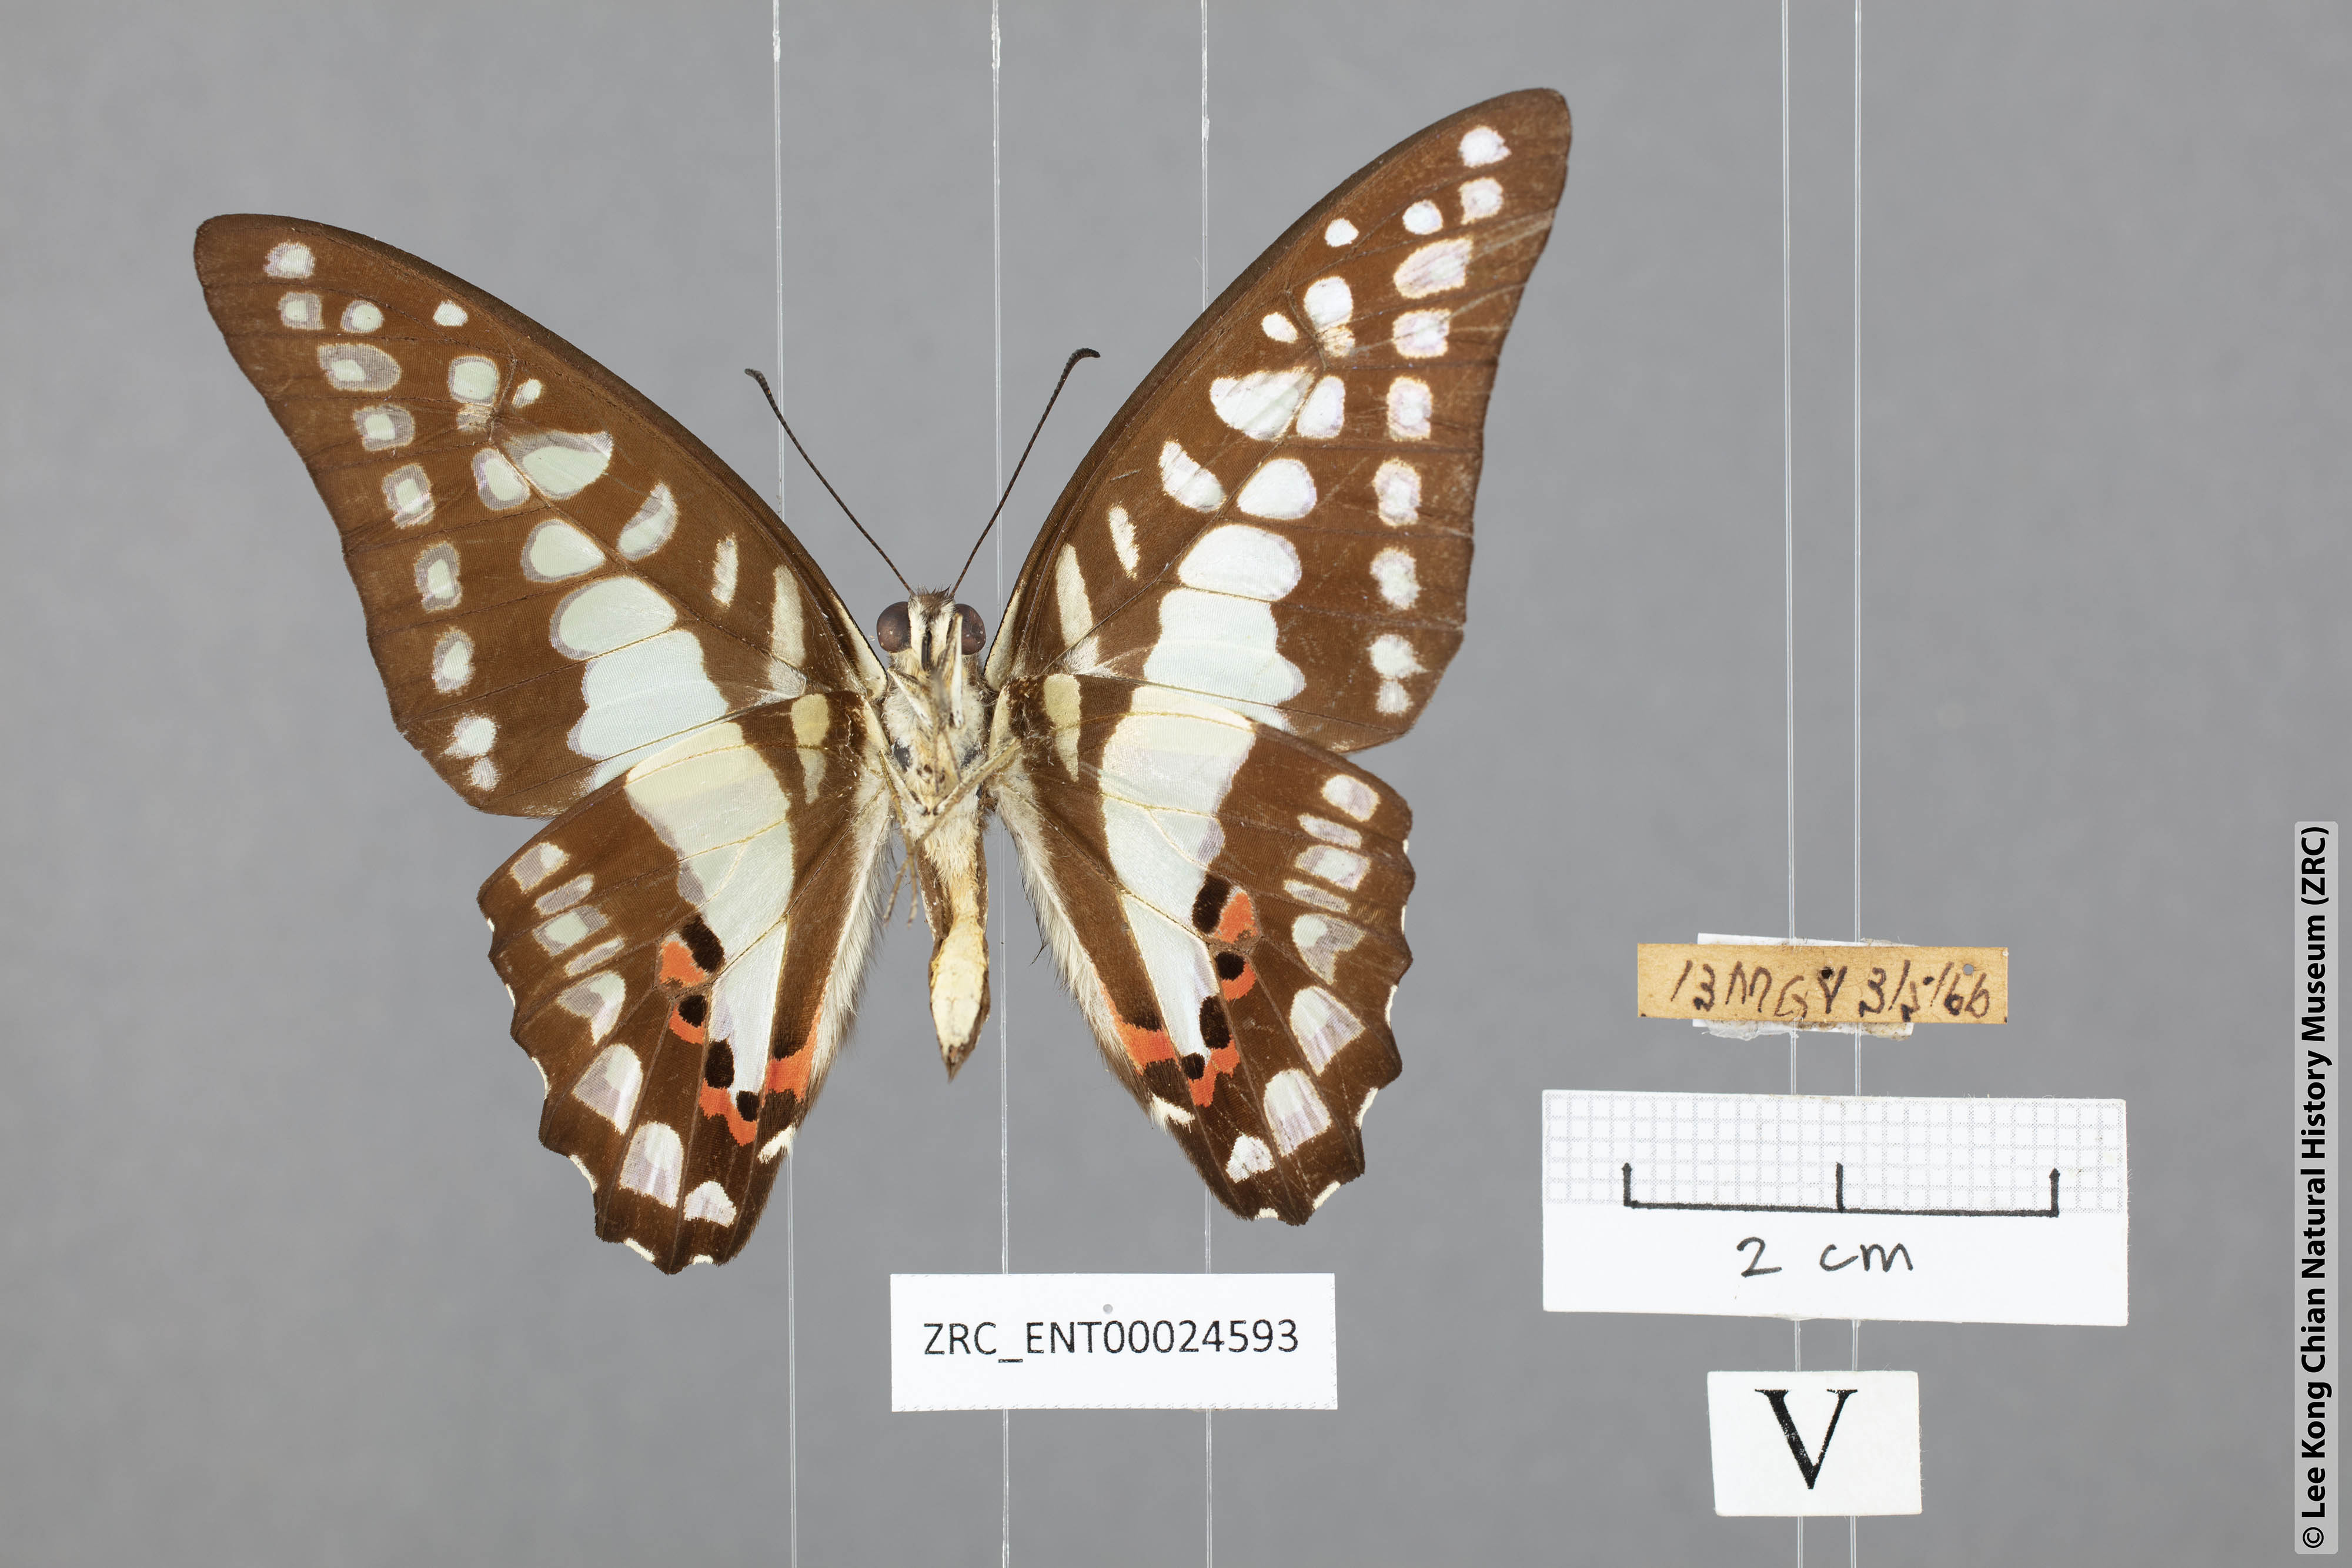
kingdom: Animalia
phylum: Arthropoda
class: Insecta
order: Lepidoptera
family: Papilionidae
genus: Graphium
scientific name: Graphium evemon
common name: Lesser jay
